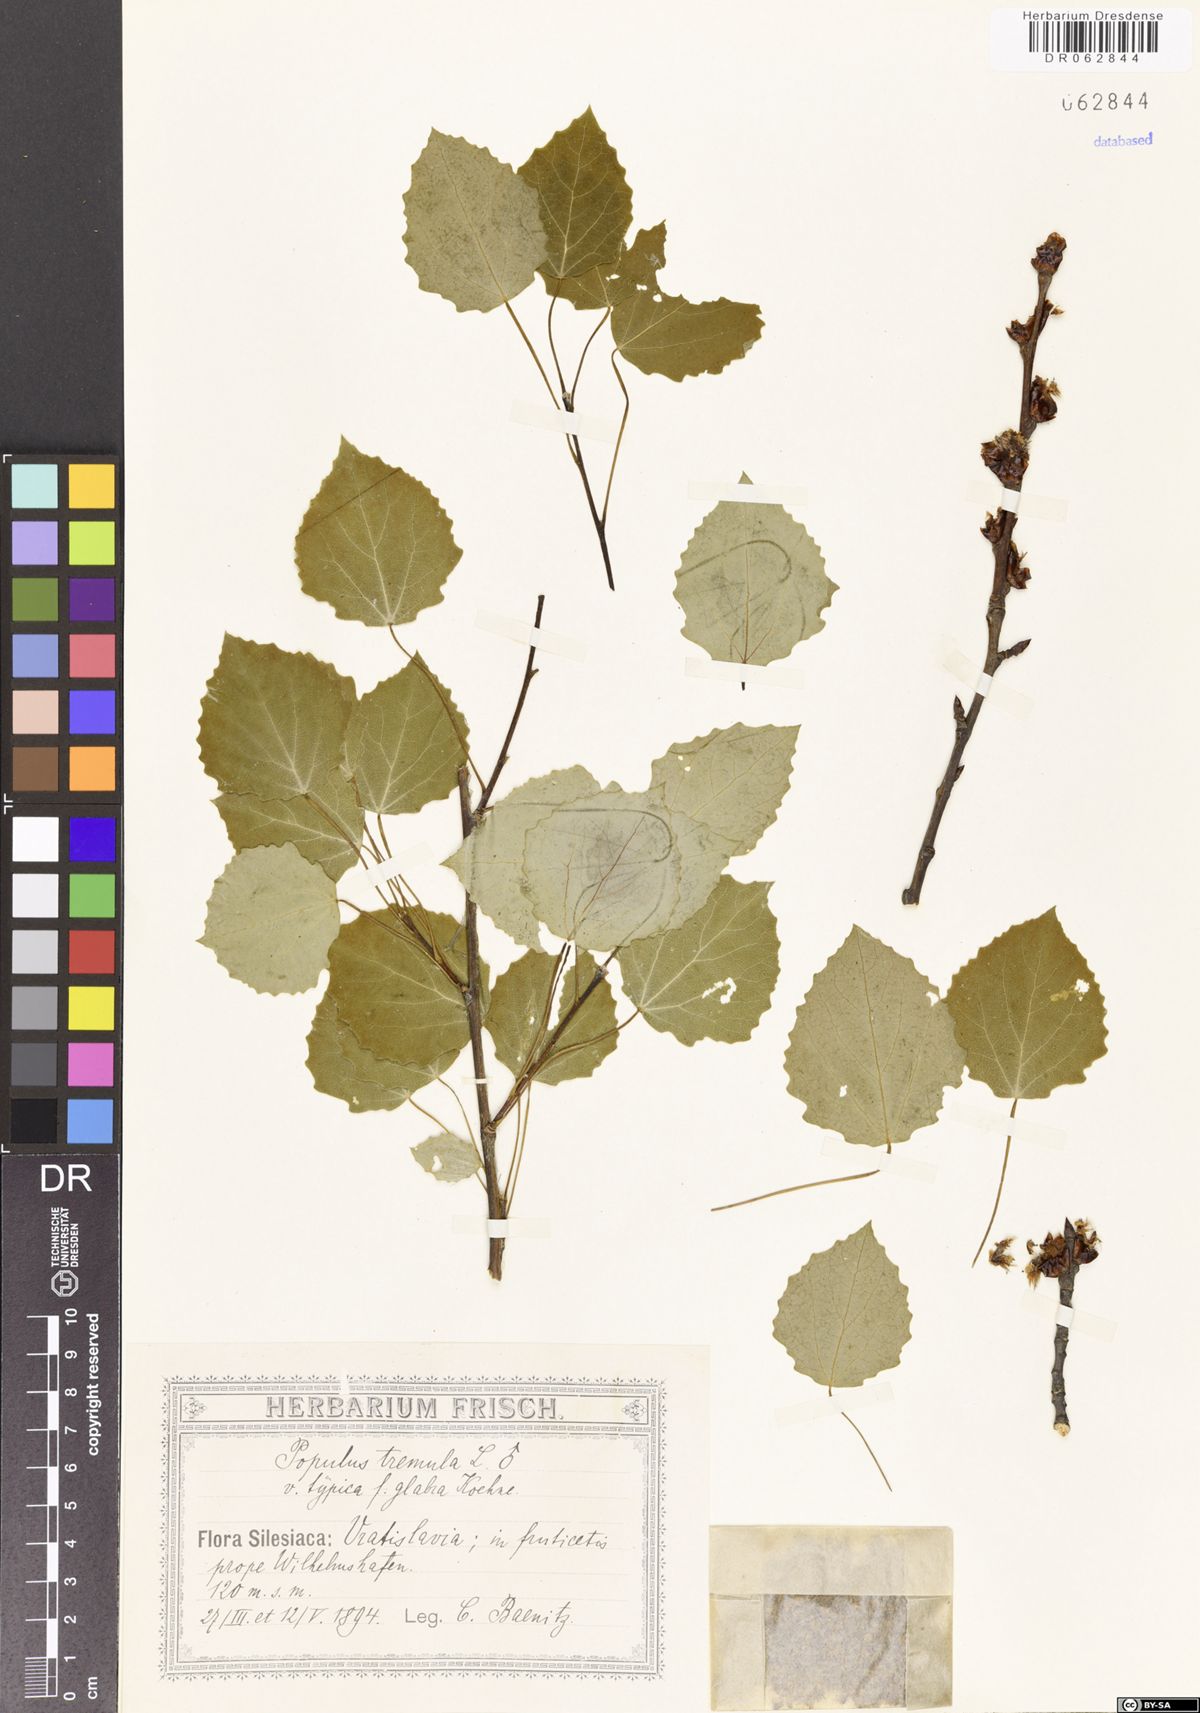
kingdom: Plantae
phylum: Tracheophyta
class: Magnoliopsida
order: Malpighiales
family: Salicaceae
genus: Populus
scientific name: Populus tremula
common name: European aspen
